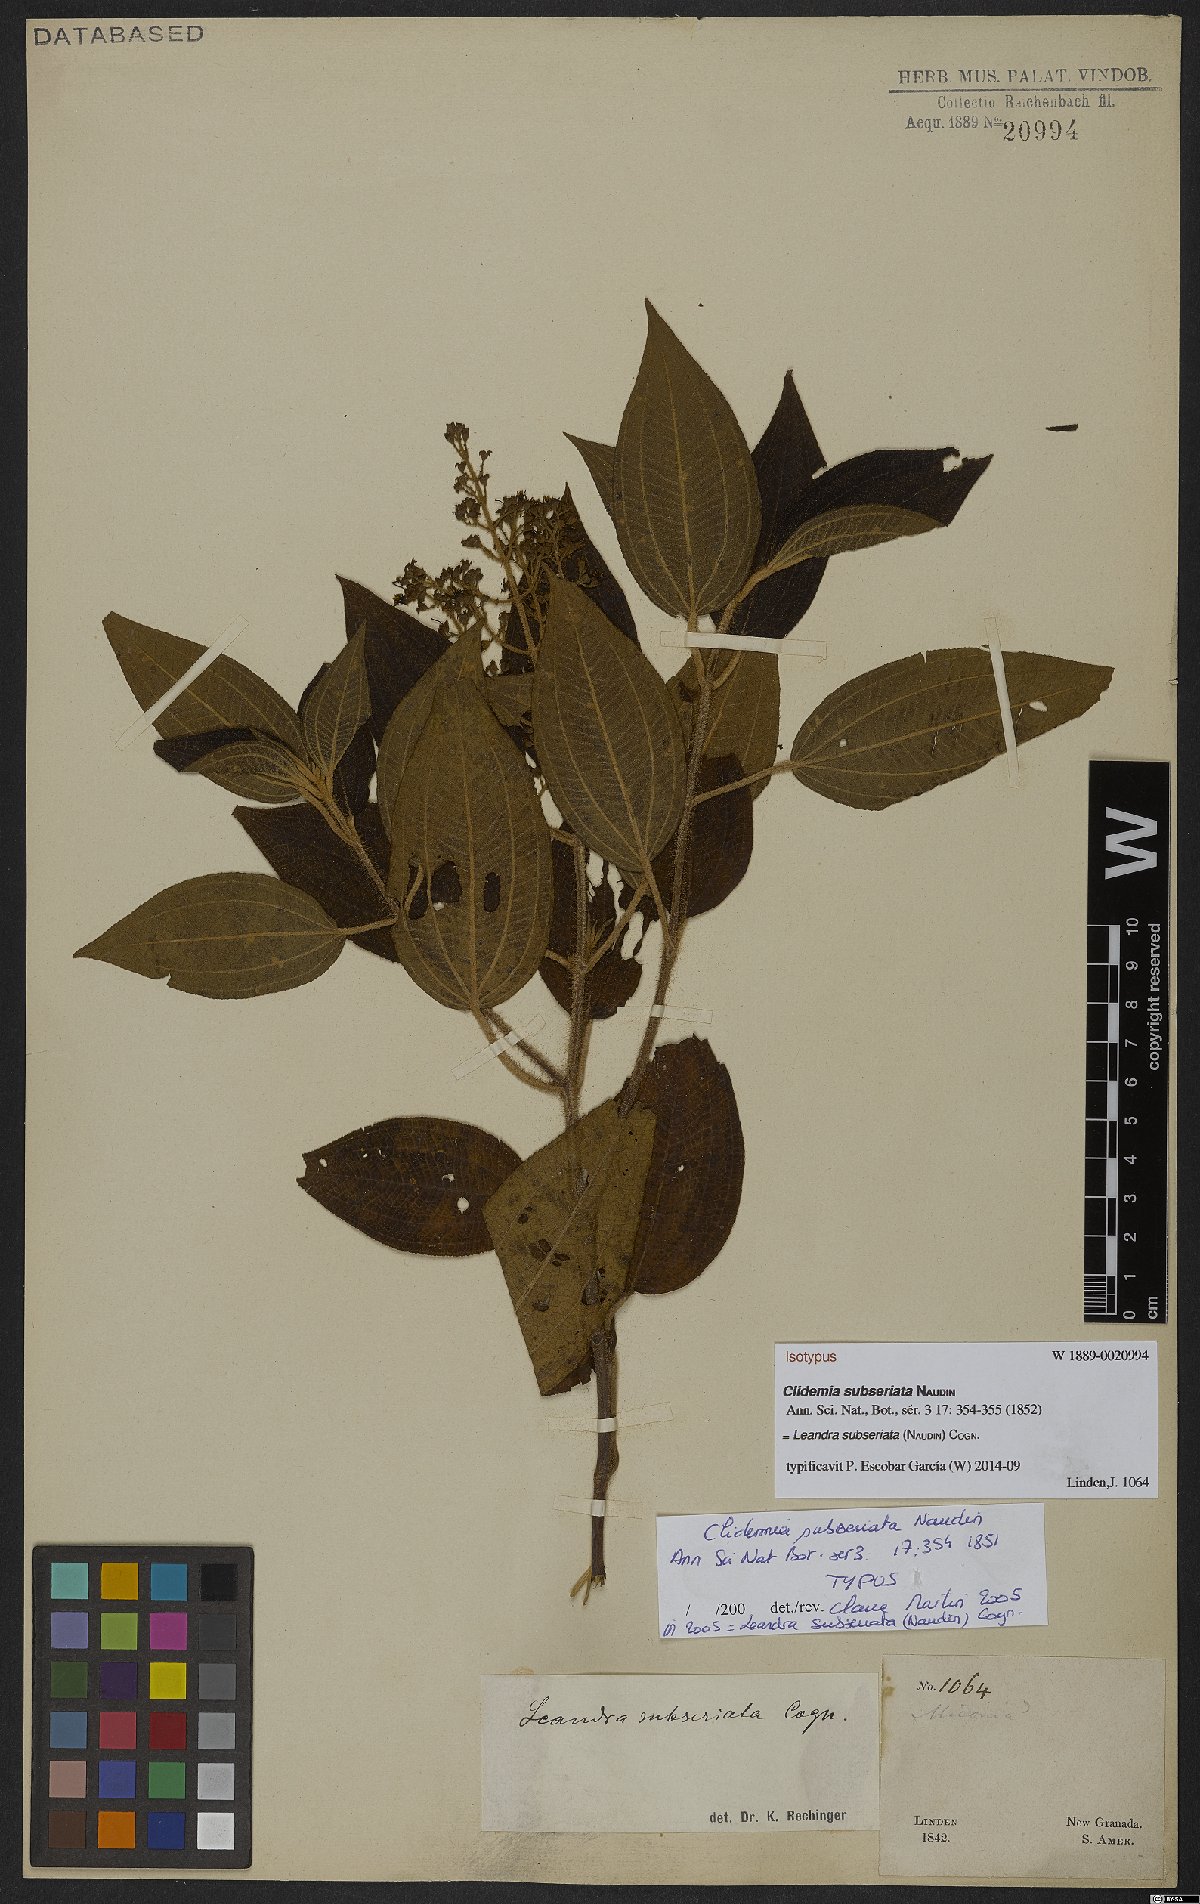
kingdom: Plantae
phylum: Tracheophyta
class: Magnoliopsida
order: Myrtales
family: Melastomataceae
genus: Miconia
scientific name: Miconia subseriata
